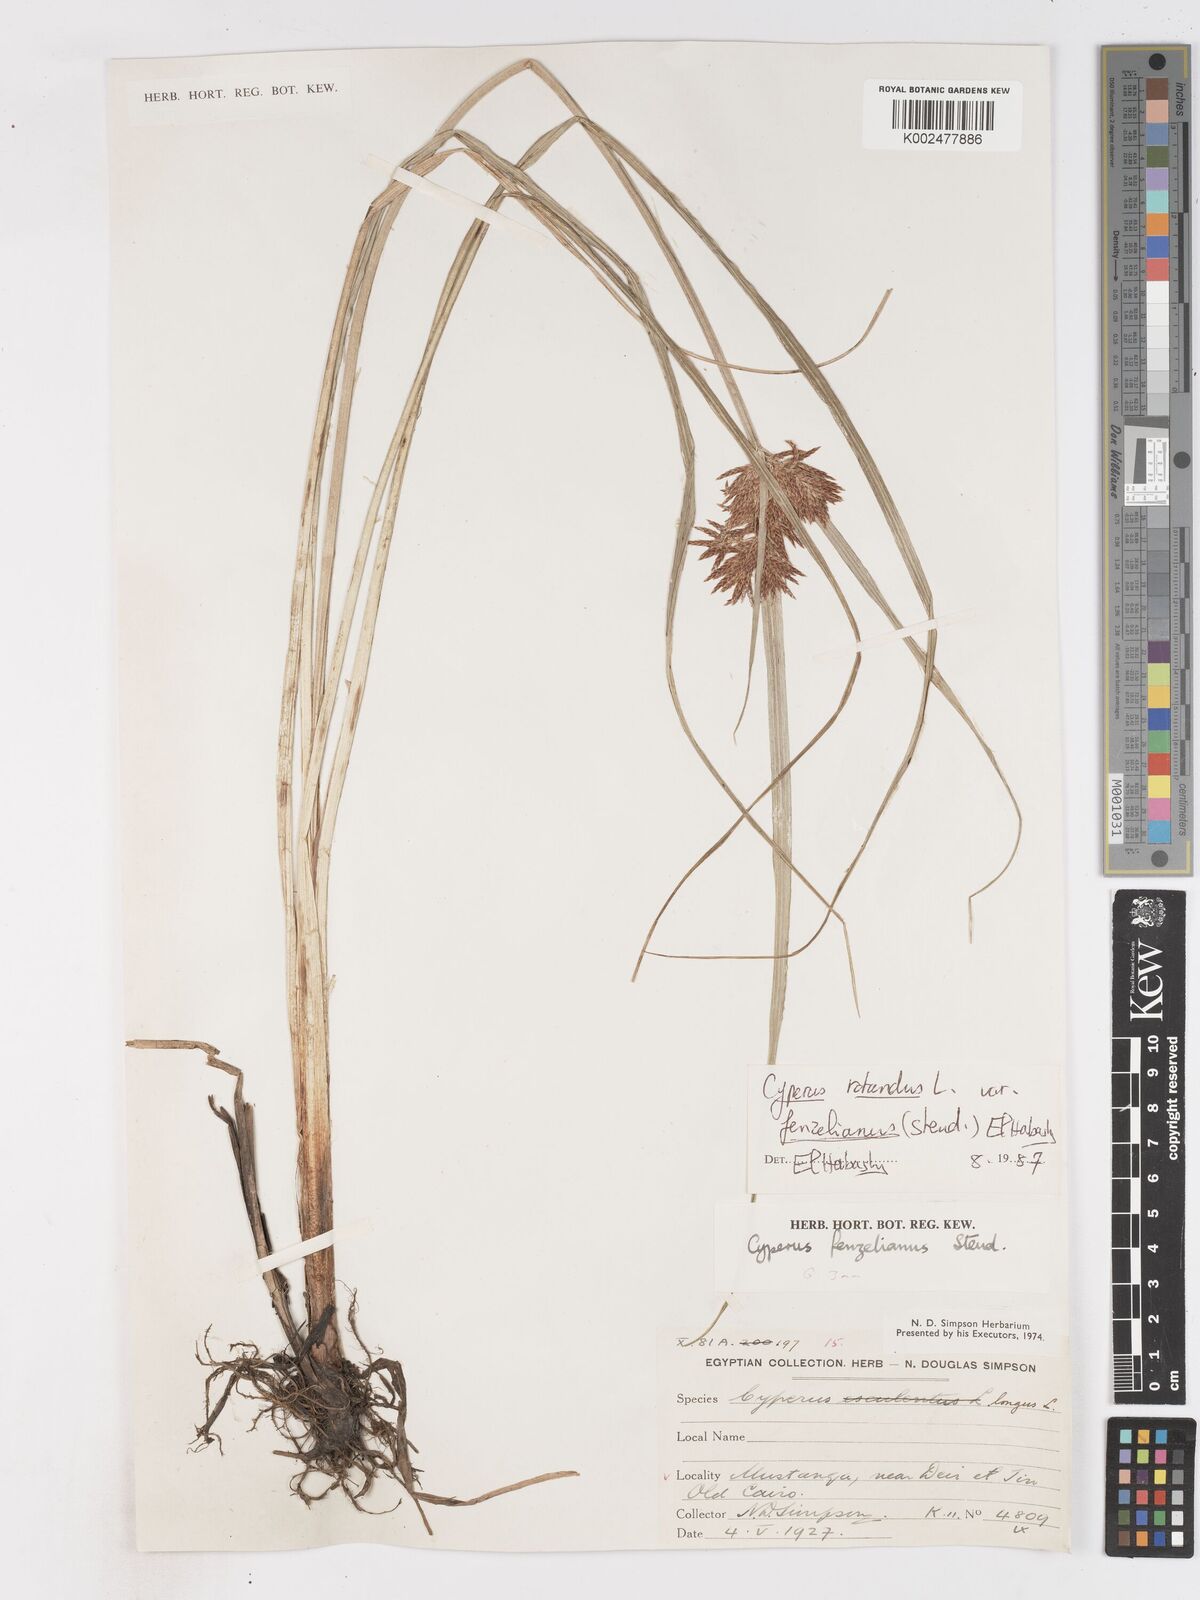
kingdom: Plantae
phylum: Tracheophyta
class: Liliopsida
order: Poales
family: Cyperaceae
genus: Cyperus
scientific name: Cyperus longus
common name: Galingale
